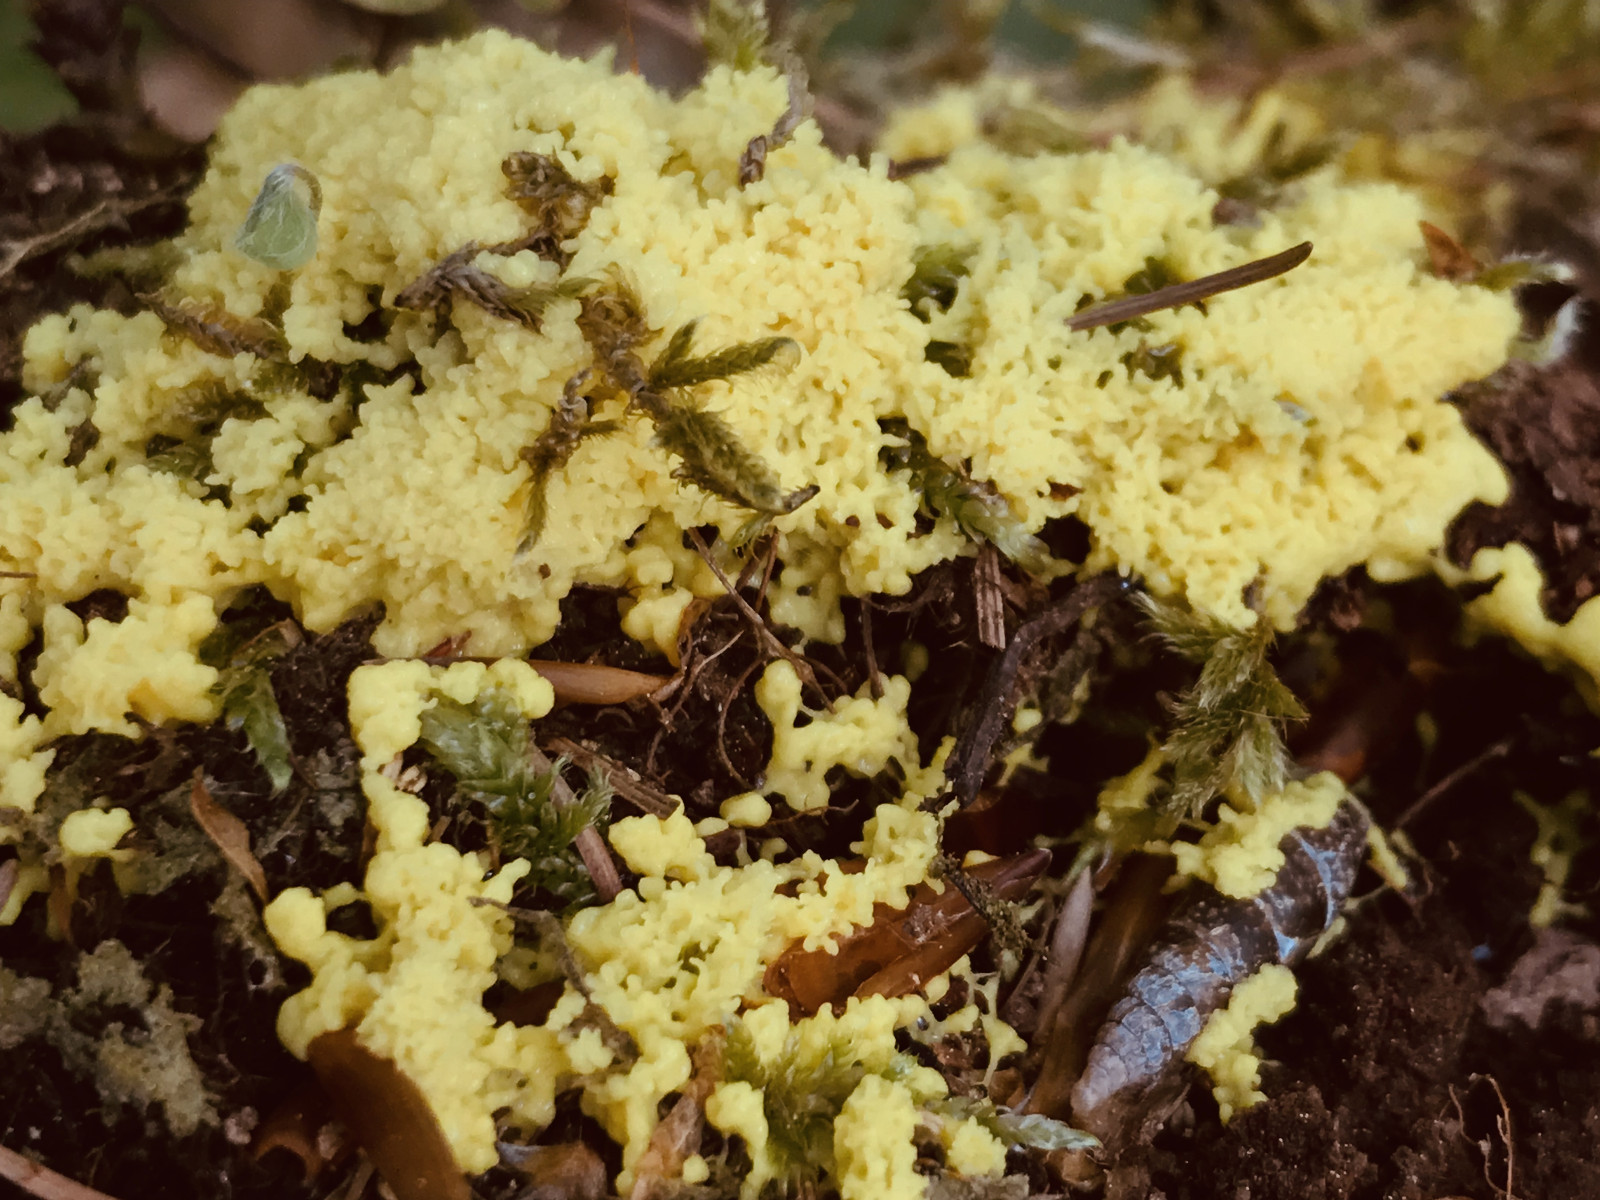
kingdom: Protozoa
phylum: Mycetozoa
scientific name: Mycetozoa
